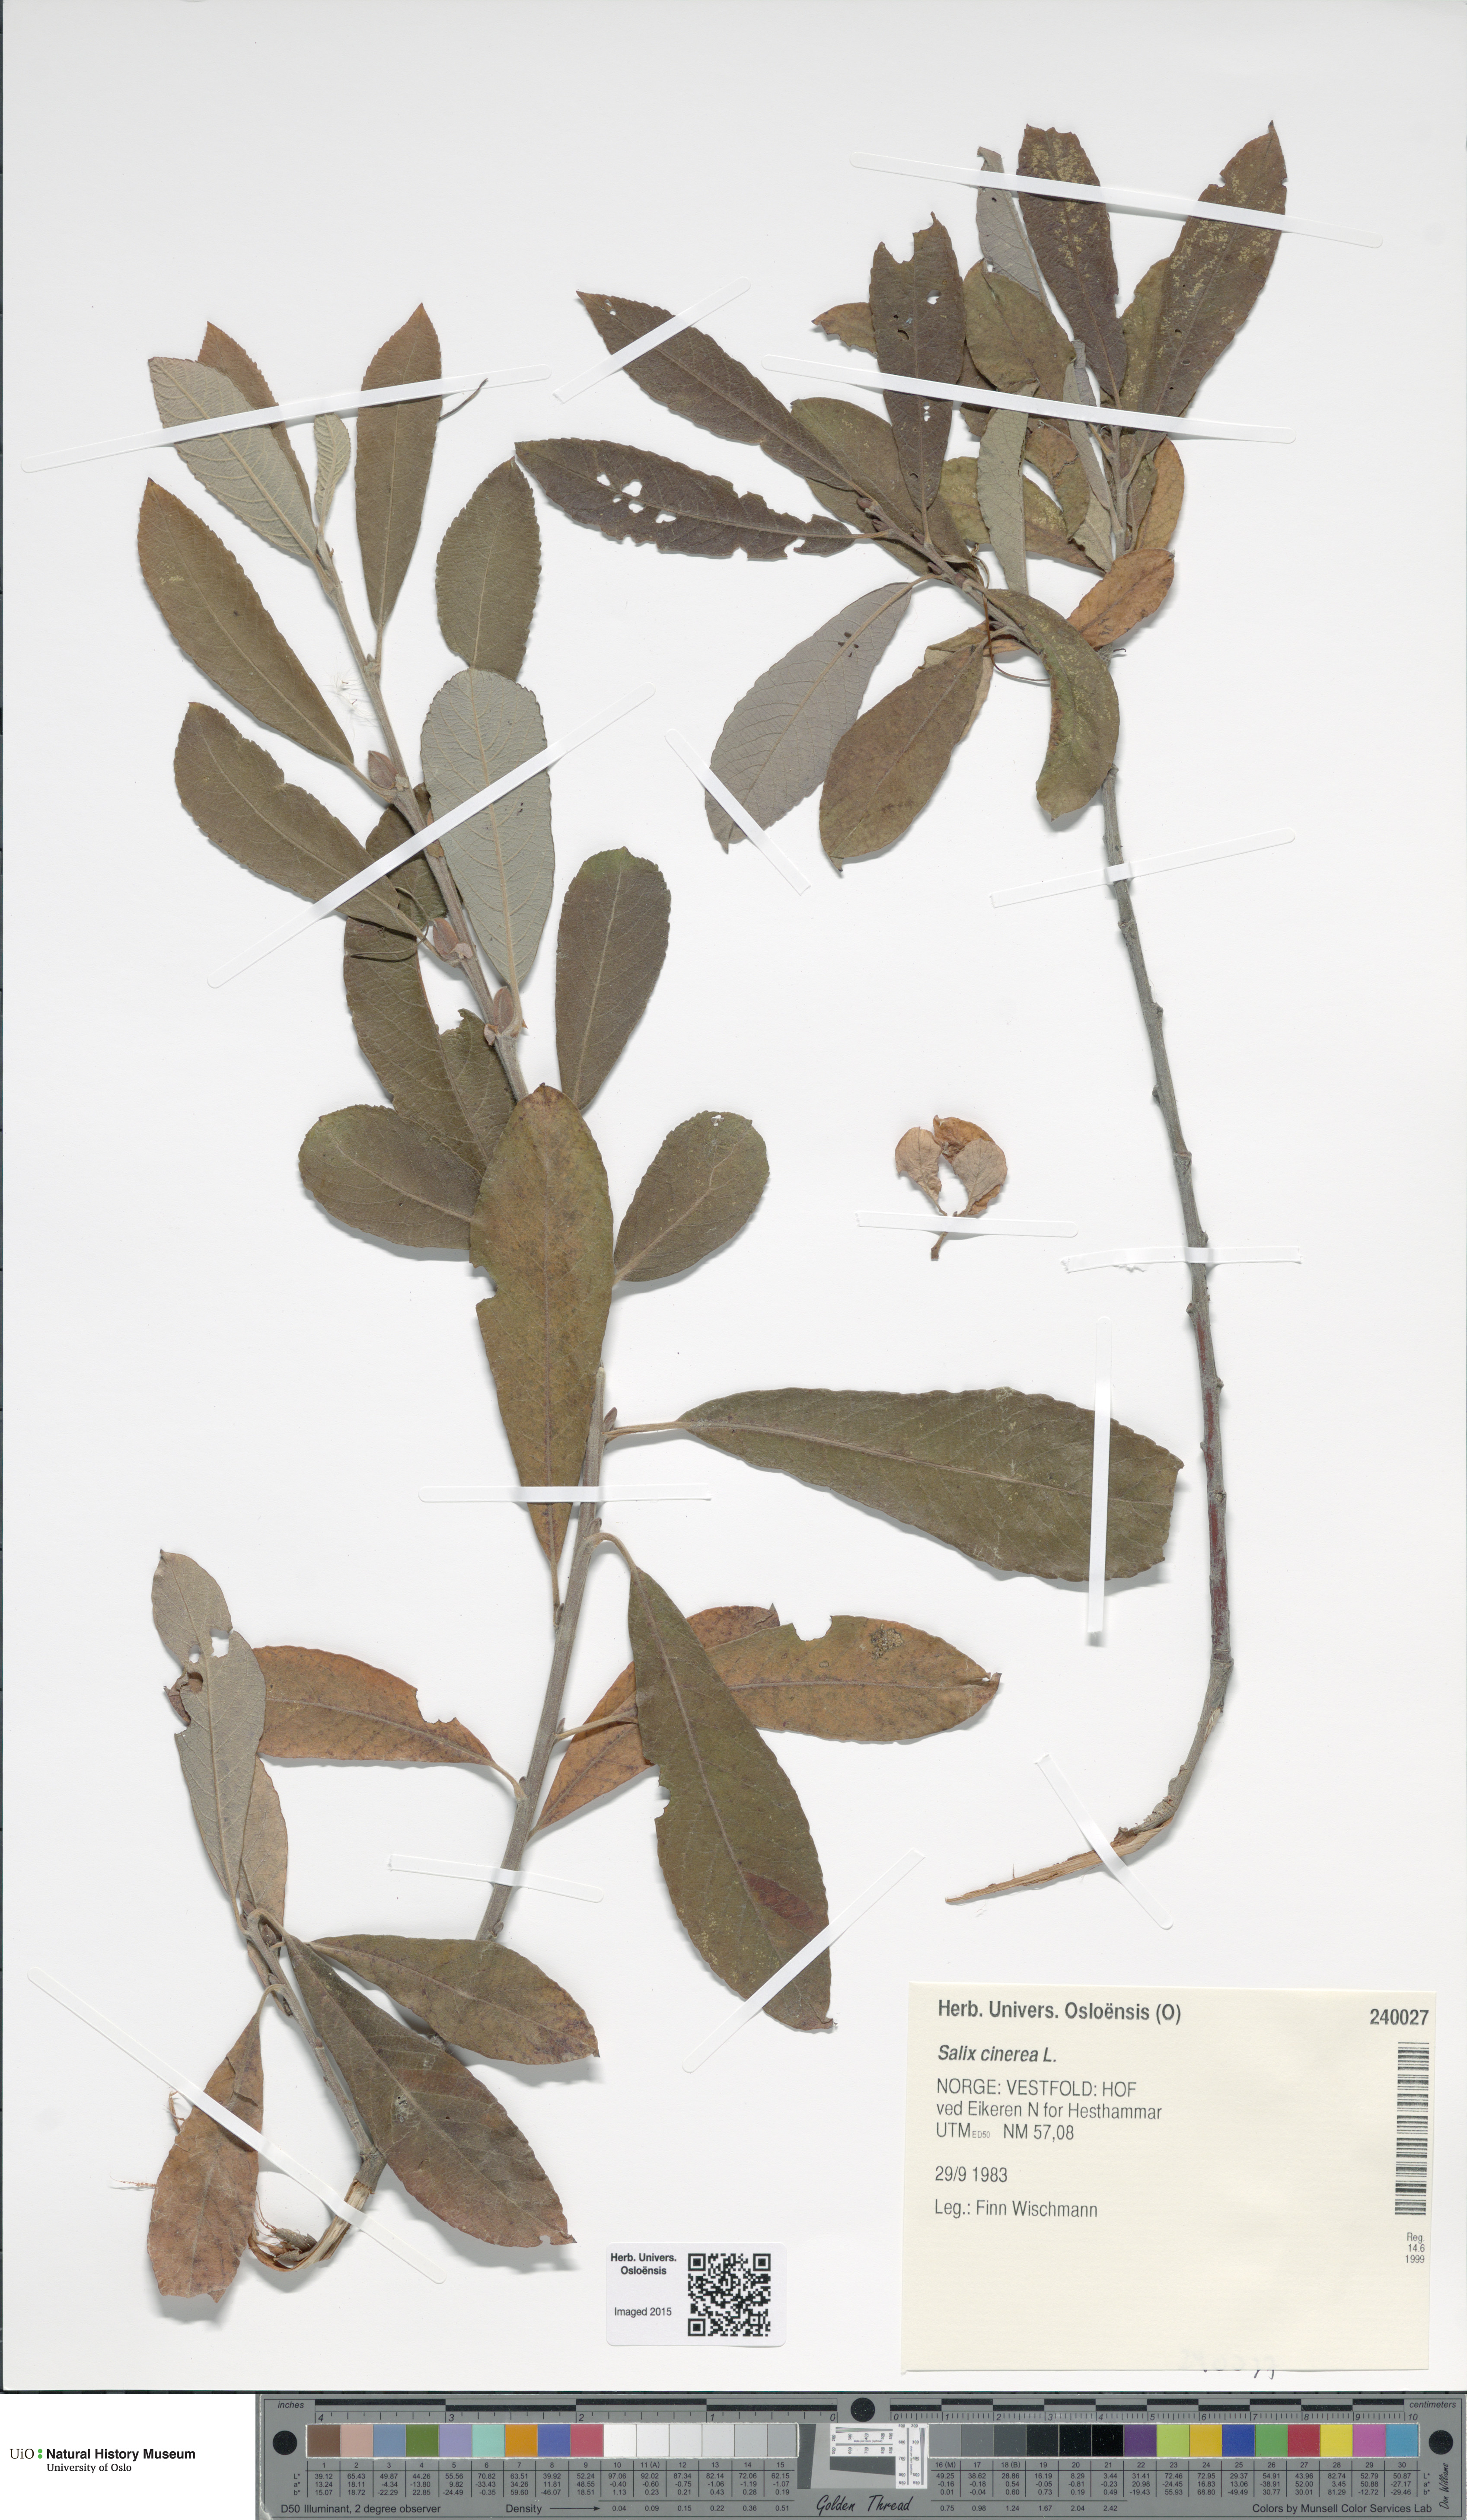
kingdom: Plantae
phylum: Tracheophyta
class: Magnoliopsida
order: Malpighiales
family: Salicaceae
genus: Salix
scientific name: Salix cinerea
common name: Common sallow
